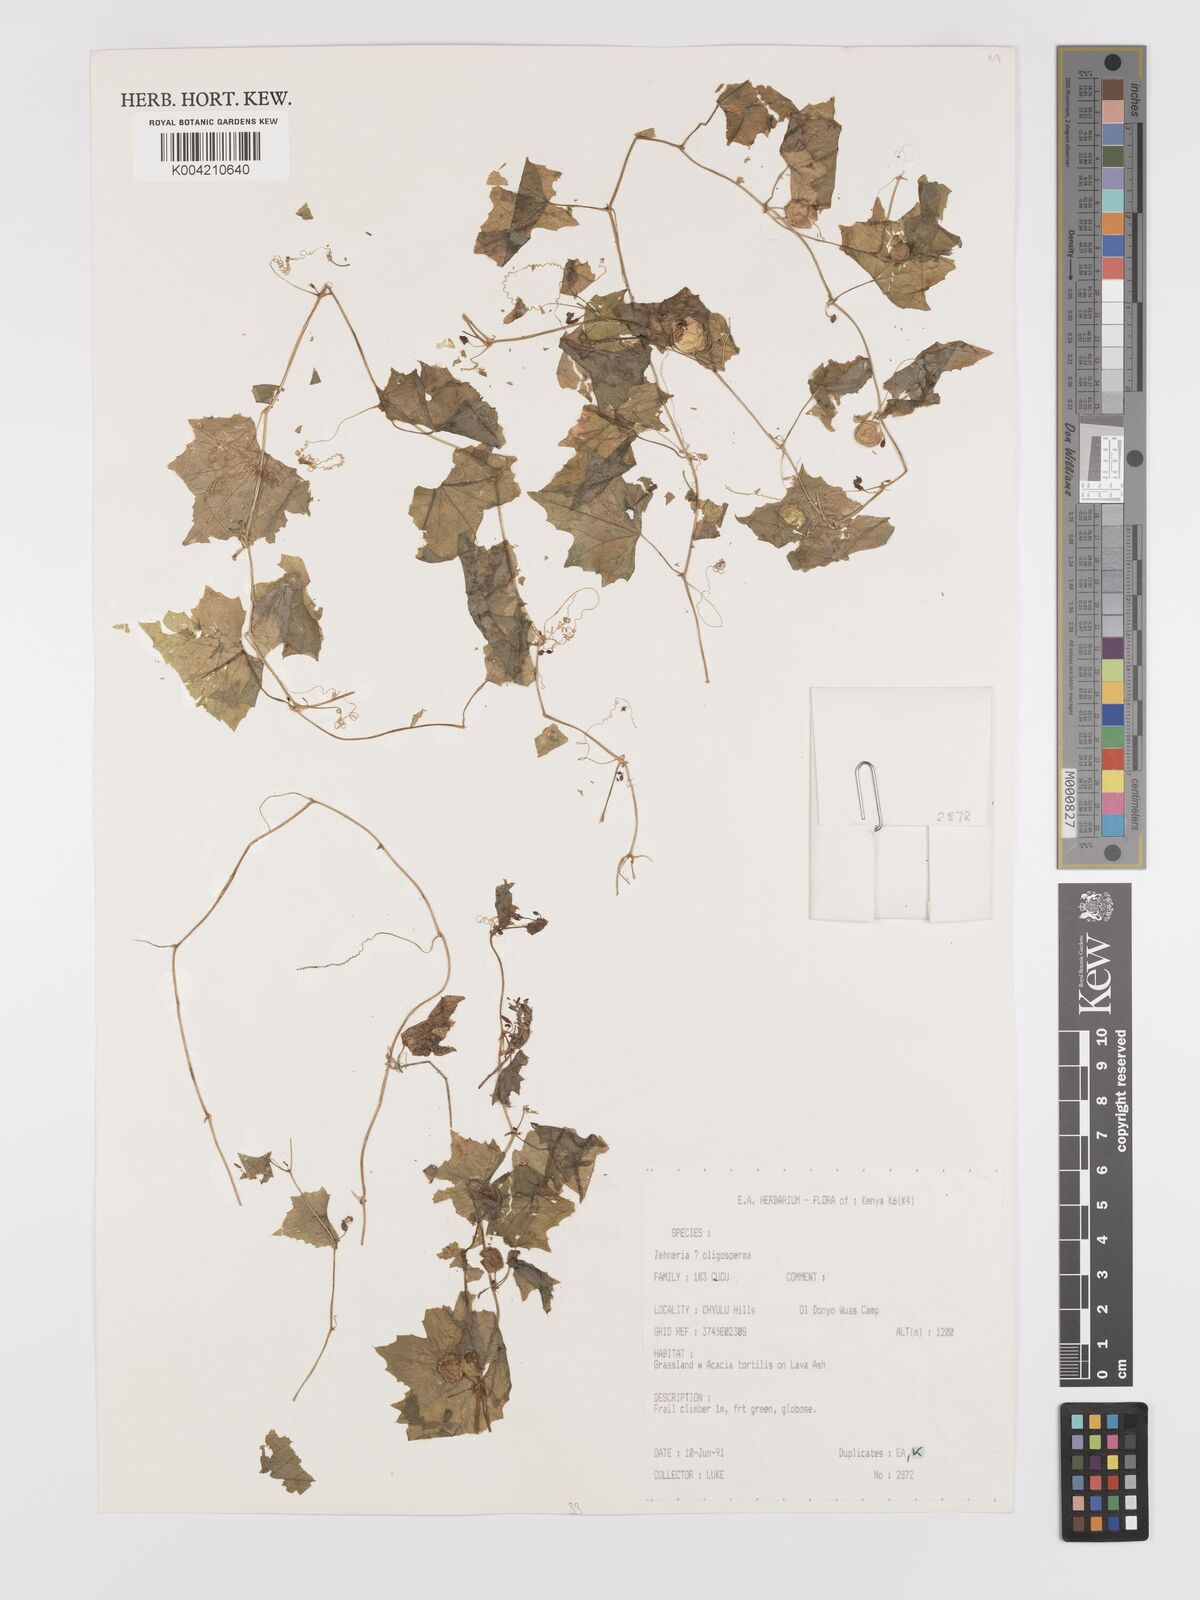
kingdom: Plantae
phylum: Tracheophyta
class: Magnoliopsida
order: Cucurbitales
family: Cucurbitaceae
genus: Zehneria
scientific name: Zehneria
